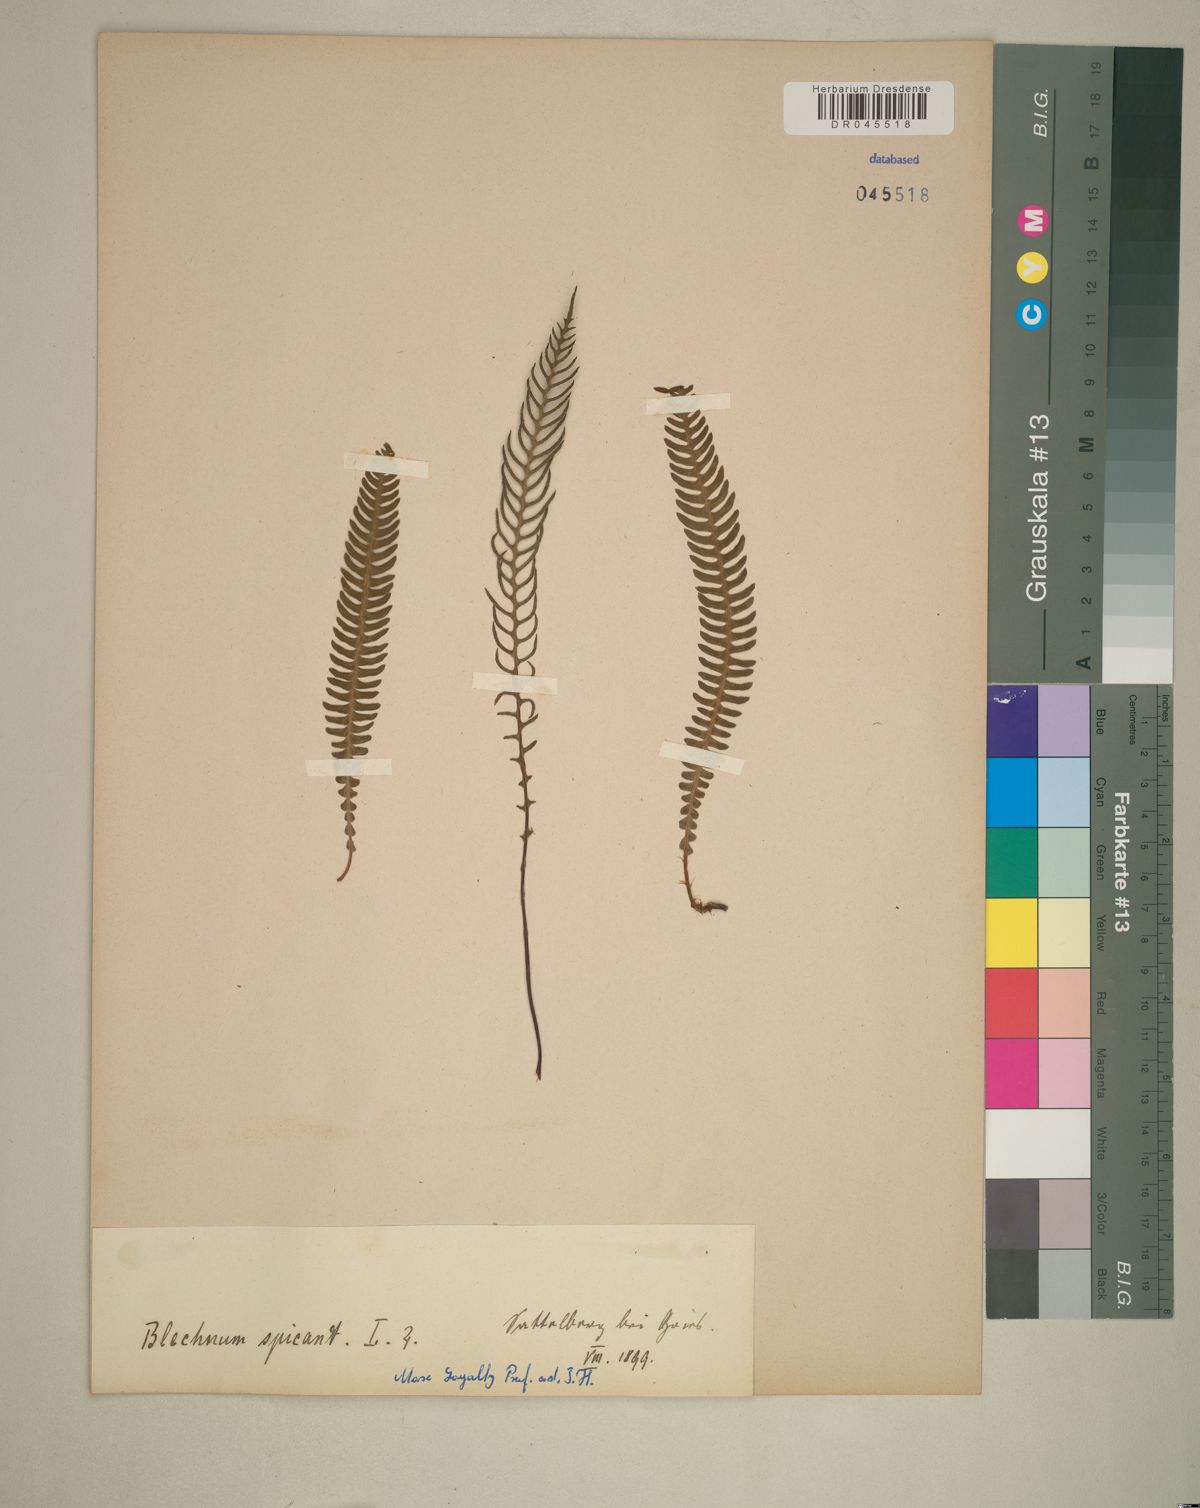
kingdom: Plantae
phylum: Tracheophyta
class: Polypodiopsida
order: Polypodiales
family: Blechnaceae
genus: Struthiopteris
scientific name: Struthiopteris spicant
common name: Deer fern
